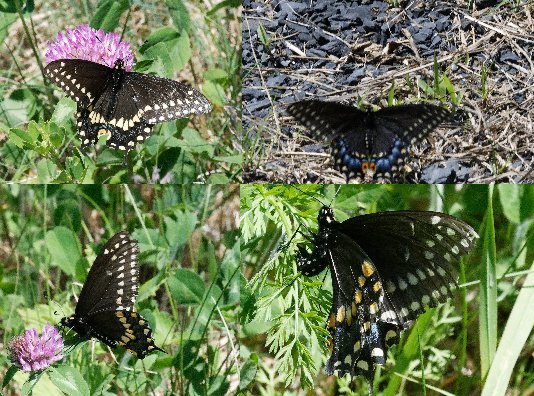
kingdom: Animalia
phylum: Arthropoda
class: Insecta
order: Lepidoptera
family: Papilionidae
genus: Papilio
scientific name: Papilio polyxenes
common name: Black Swallowtail
